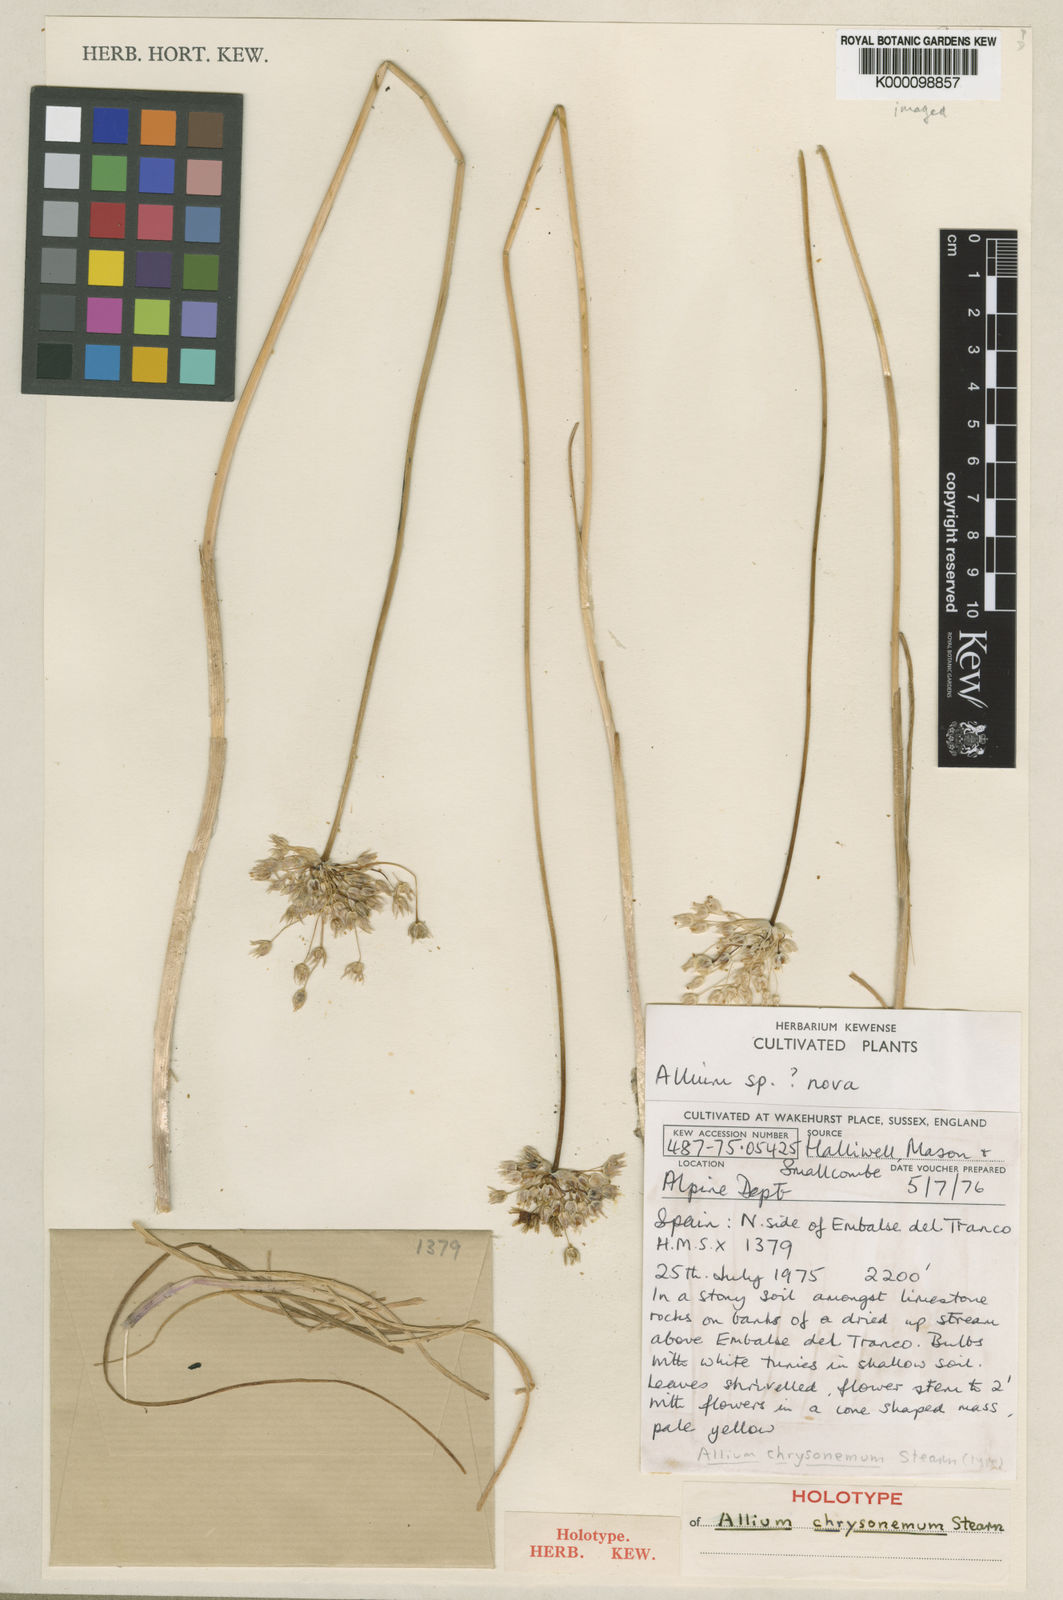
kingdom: Plantae
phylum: Tracheophyta
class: Liliopsida
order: Asparagales
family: Amaryllidaceae
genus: Allium
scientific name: Allium rouyi
